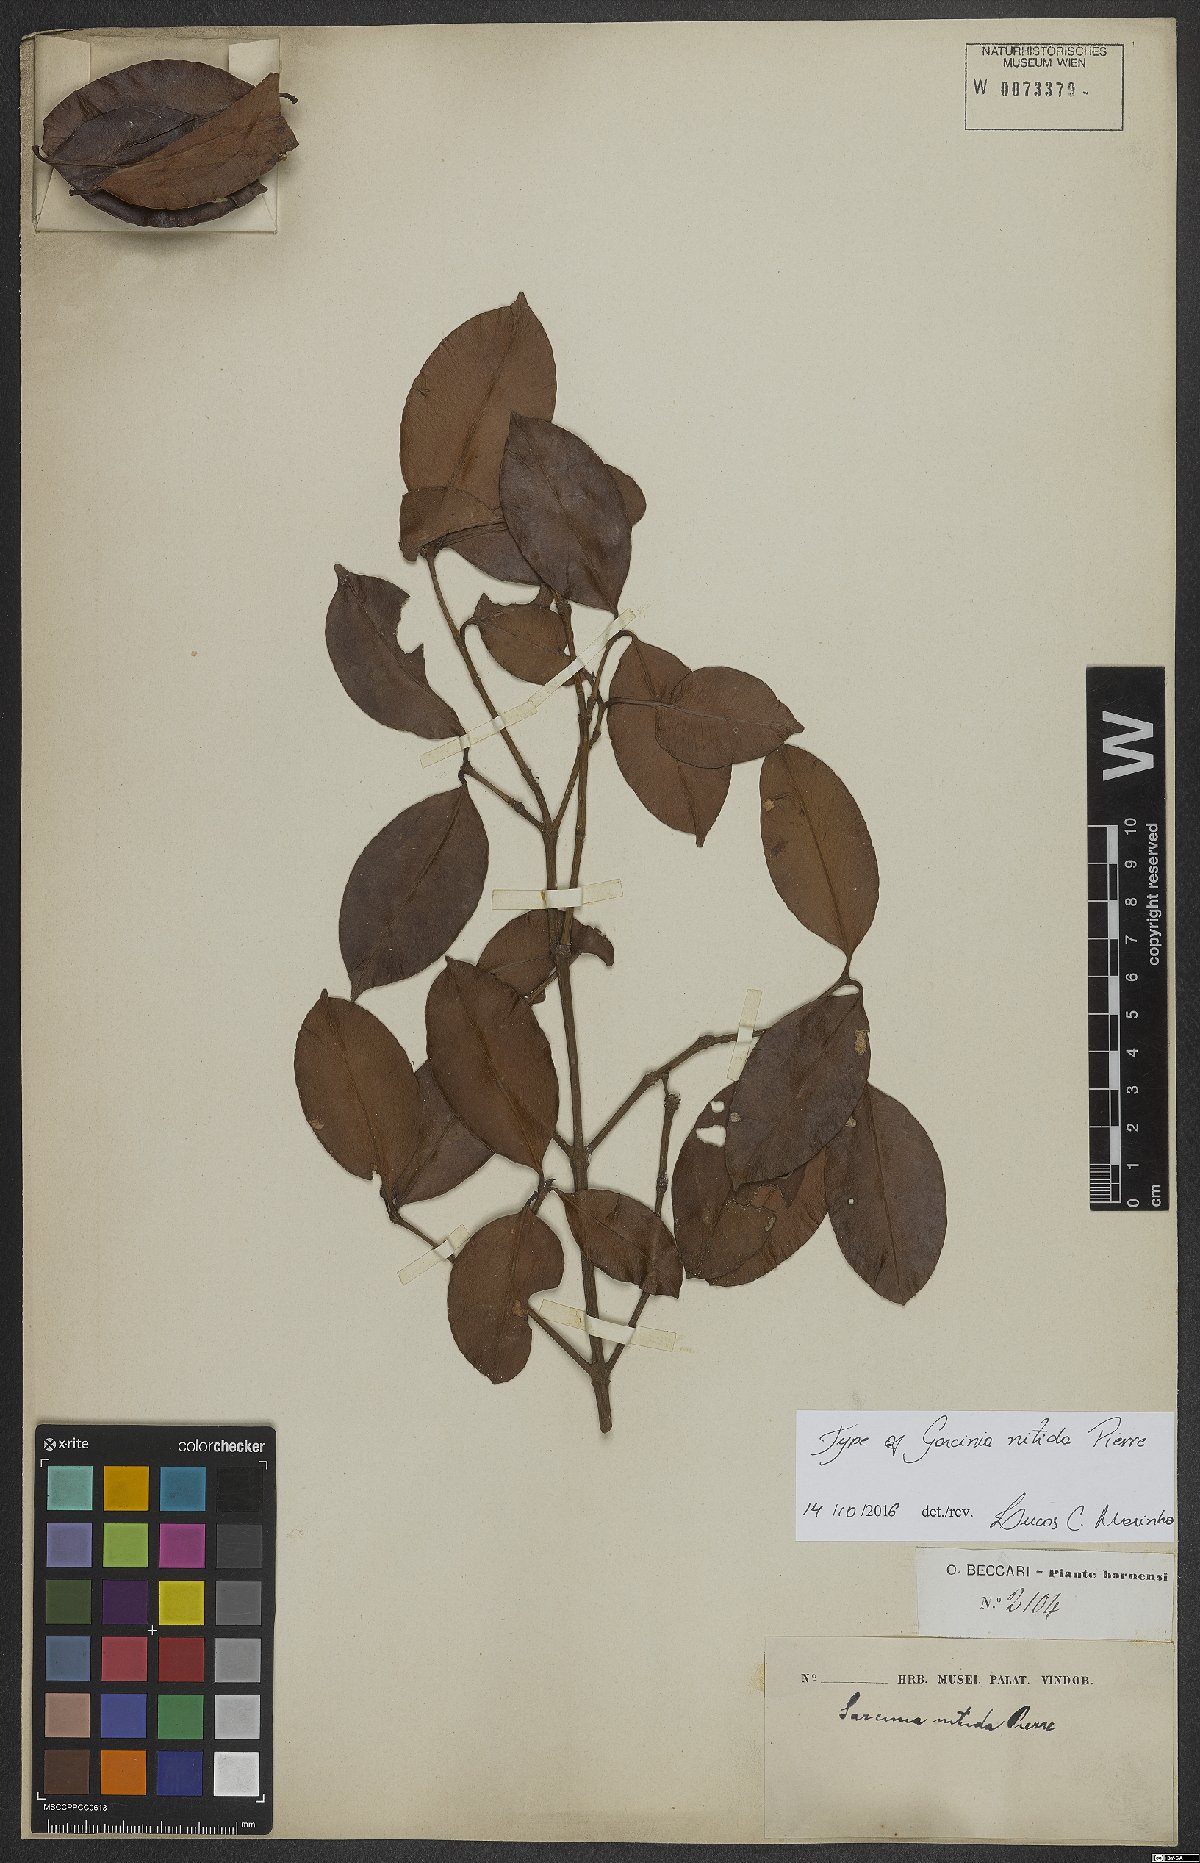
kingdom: Plantae
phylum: Tracheophyta
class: Magnoliopsida
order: Malpighiales
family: Clusiaceae
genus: Garcinia
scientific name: Garcinia nitida
